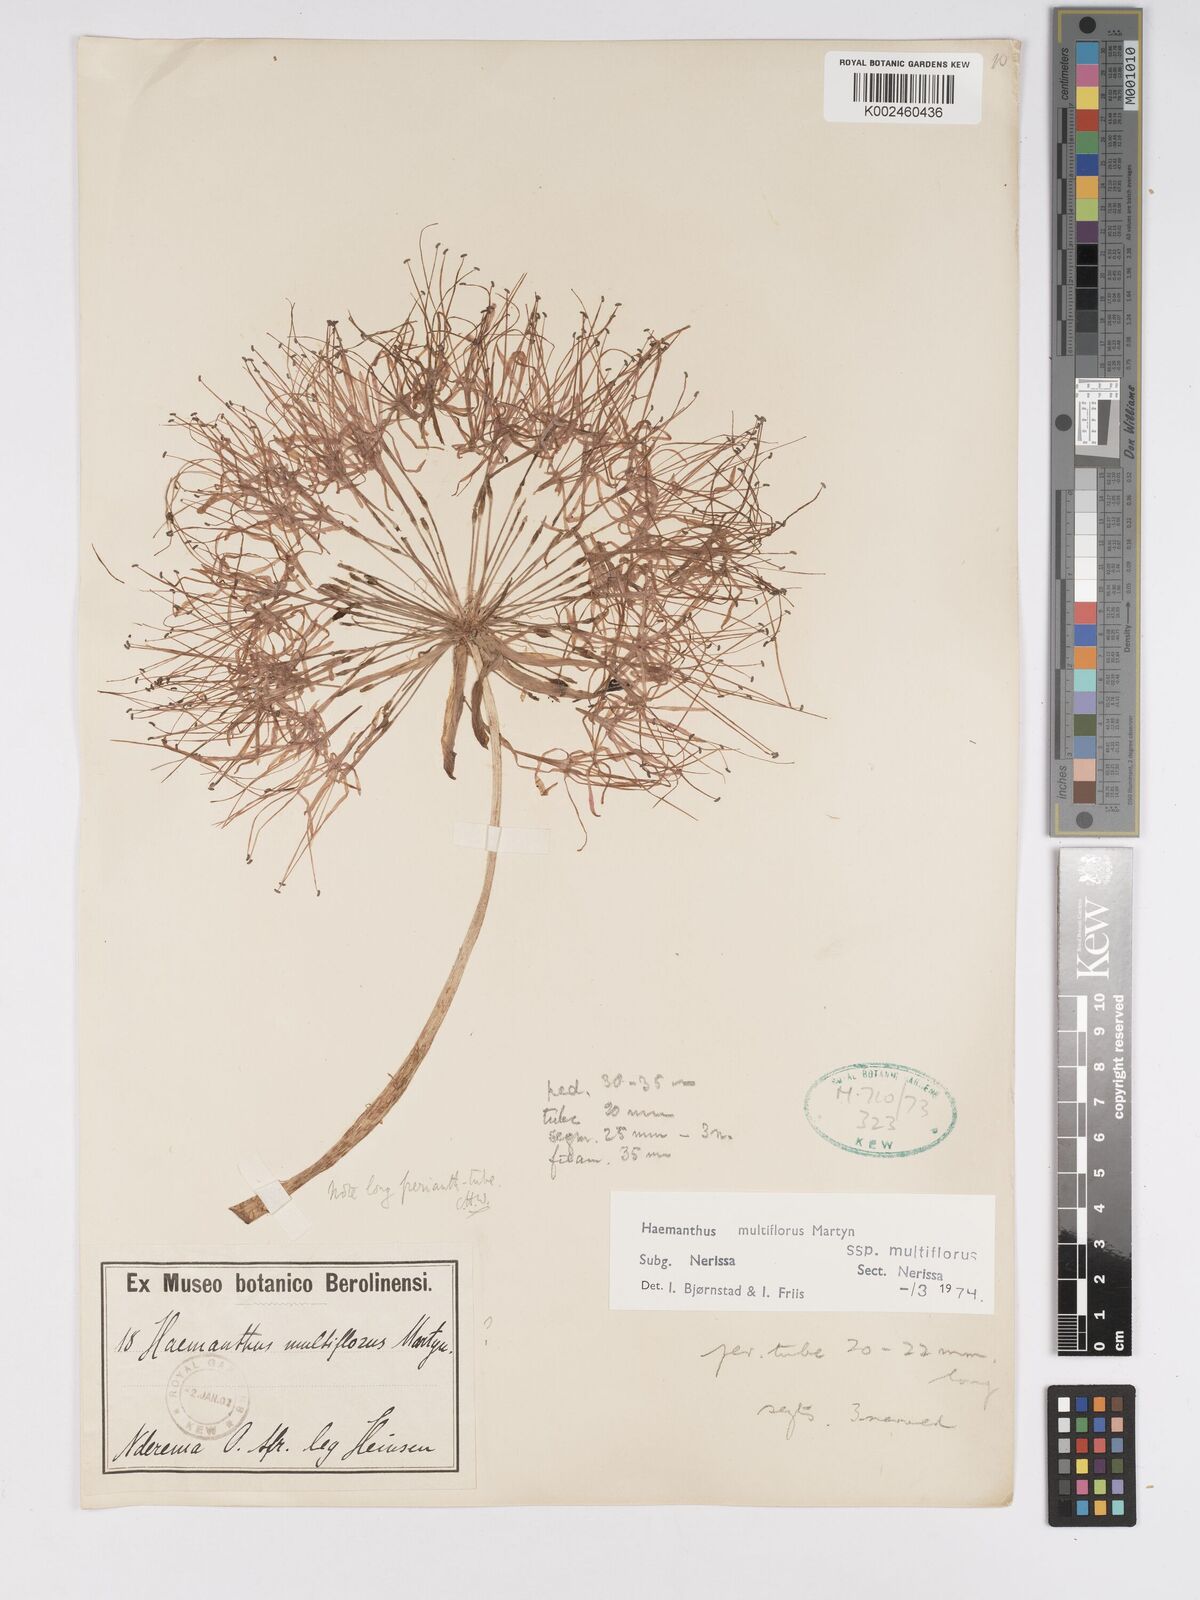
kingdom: Plantae
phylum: Tracheophyta
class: Liliopsida
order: Asparagales
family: Amaryllidaceae
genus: Scadoxus
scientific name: Scadoxus multiflorus
